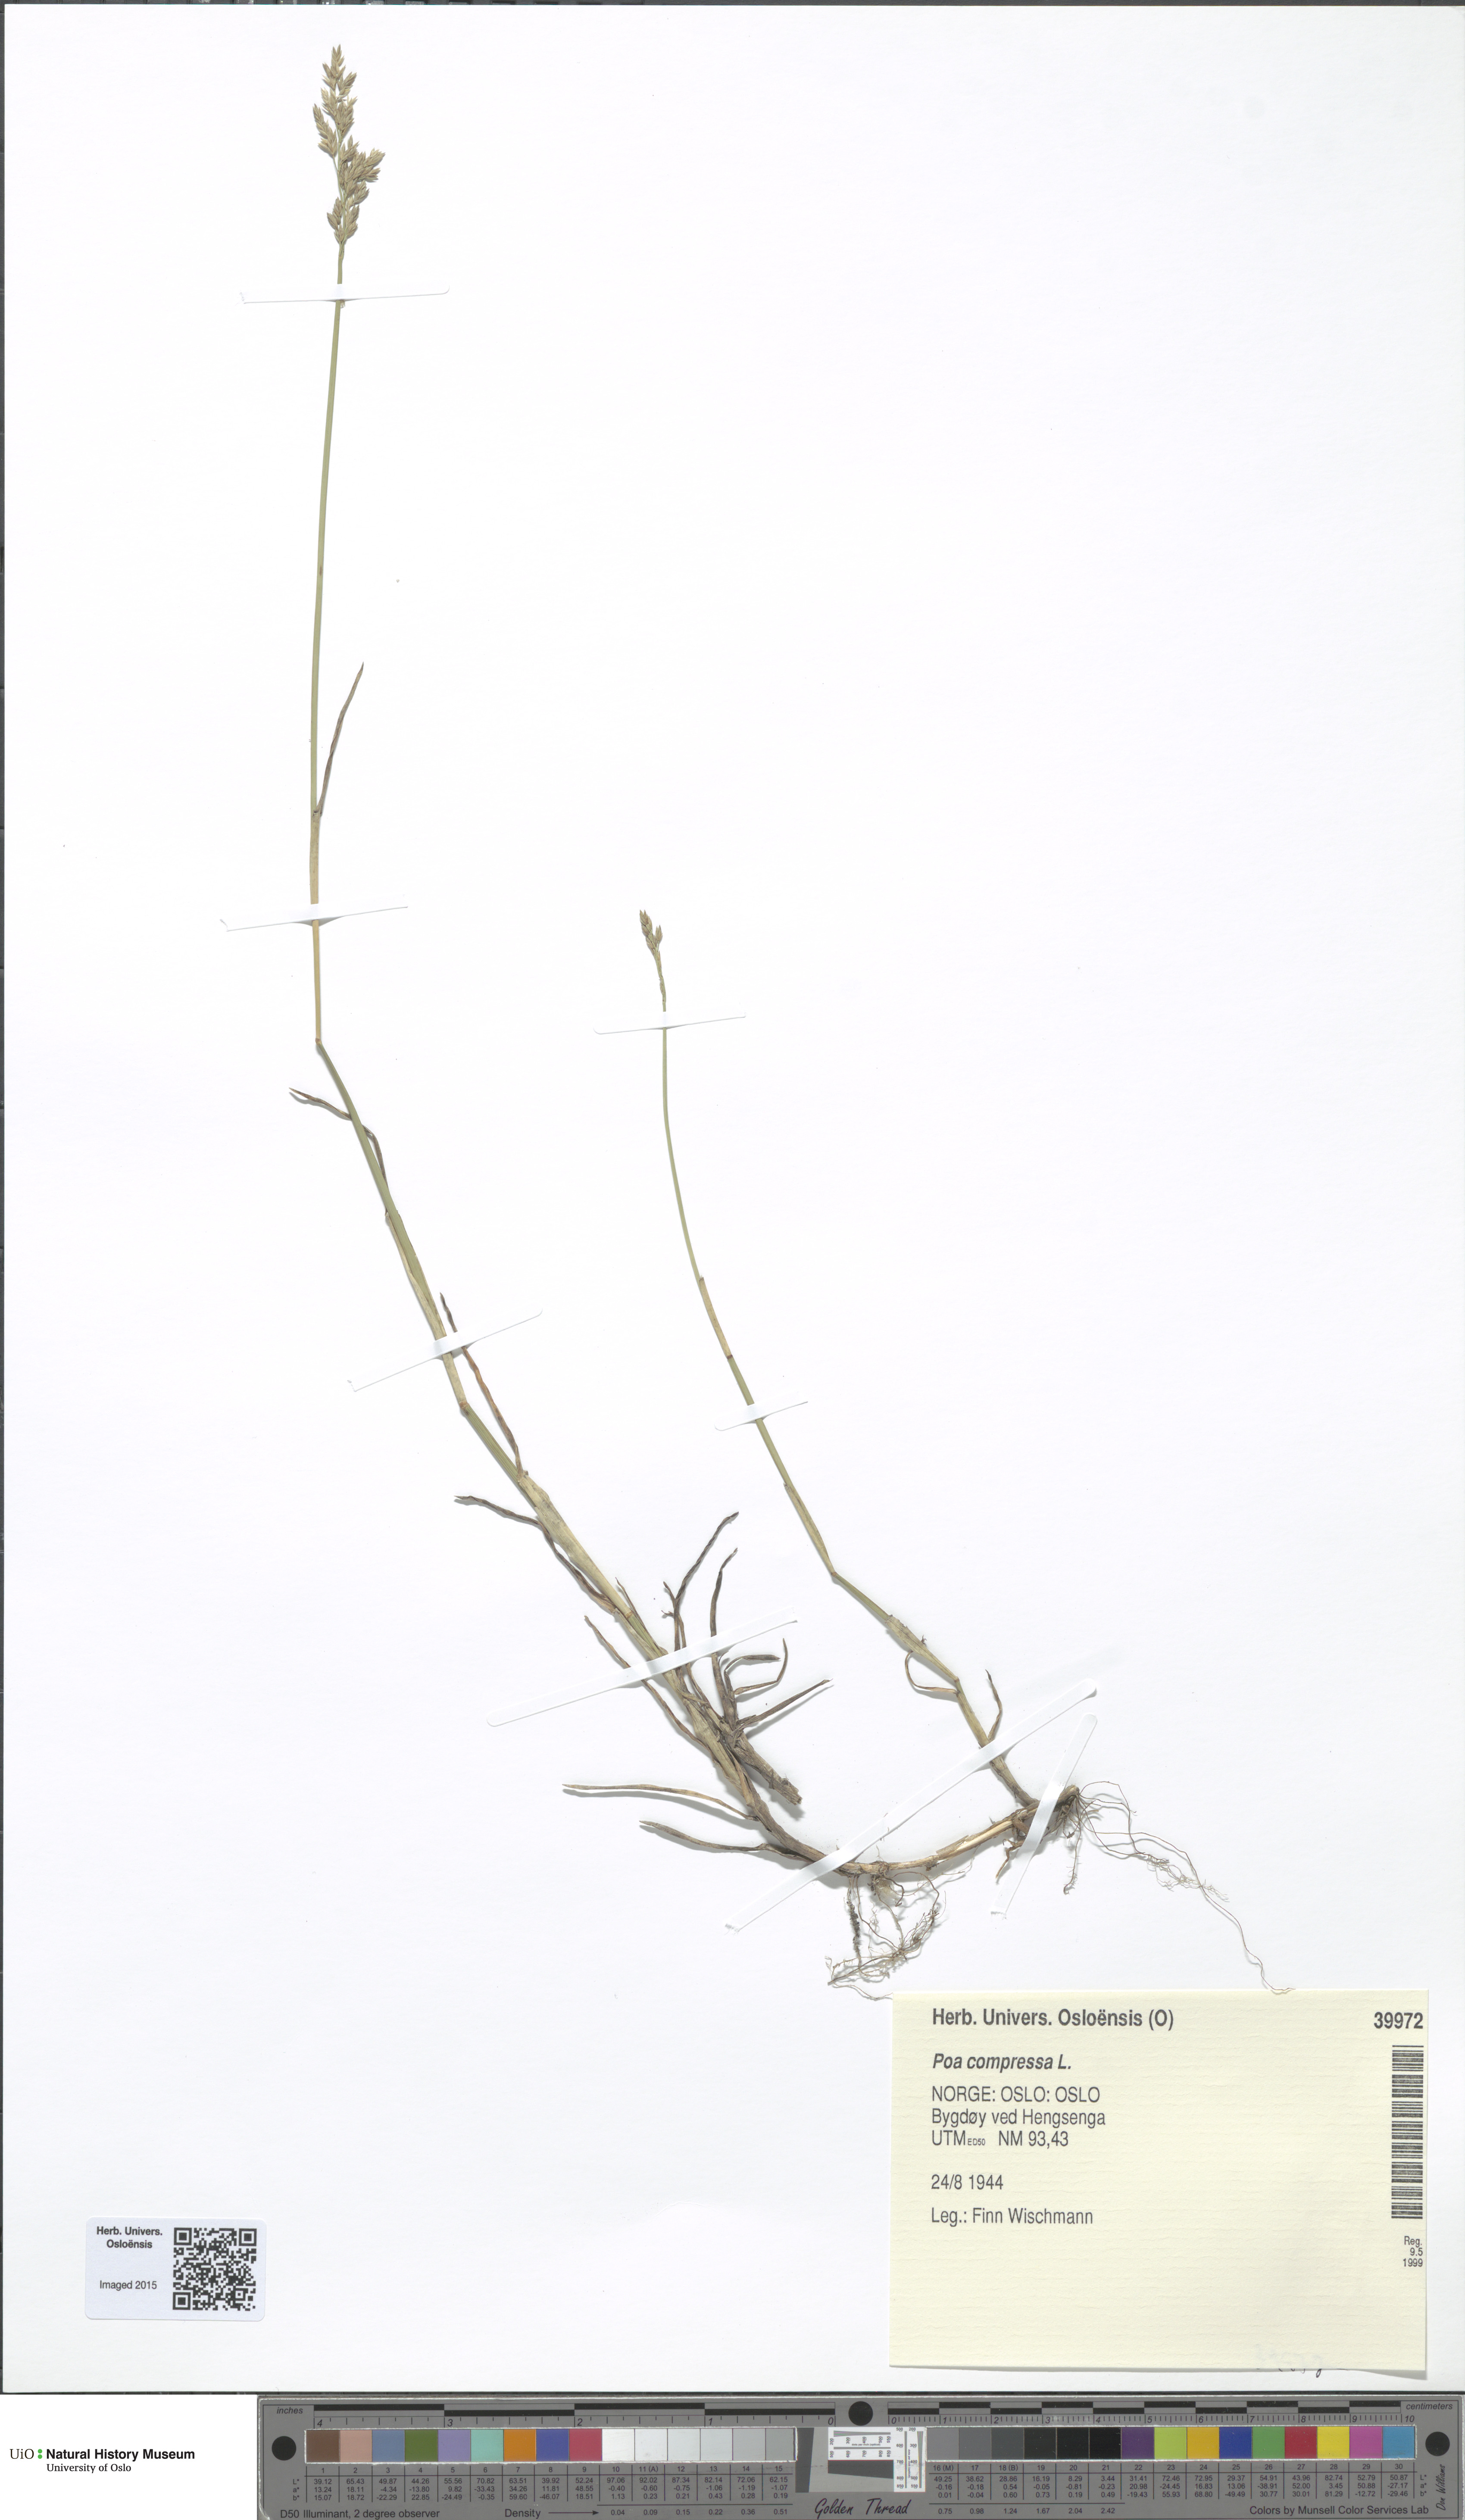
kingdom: Plantae
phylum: Tracheophyta
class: Liliopsida
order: Poales
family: Poaceae
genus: Poa
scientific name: Poa compressa
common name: Canada bluegrass
